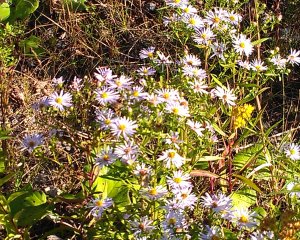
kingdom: Animalia
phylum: Arthropoda
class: Insecta
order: Lepidoptera
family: Pieridae
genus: Colias
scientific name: Colias philodice
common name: Clouded Sulphur
